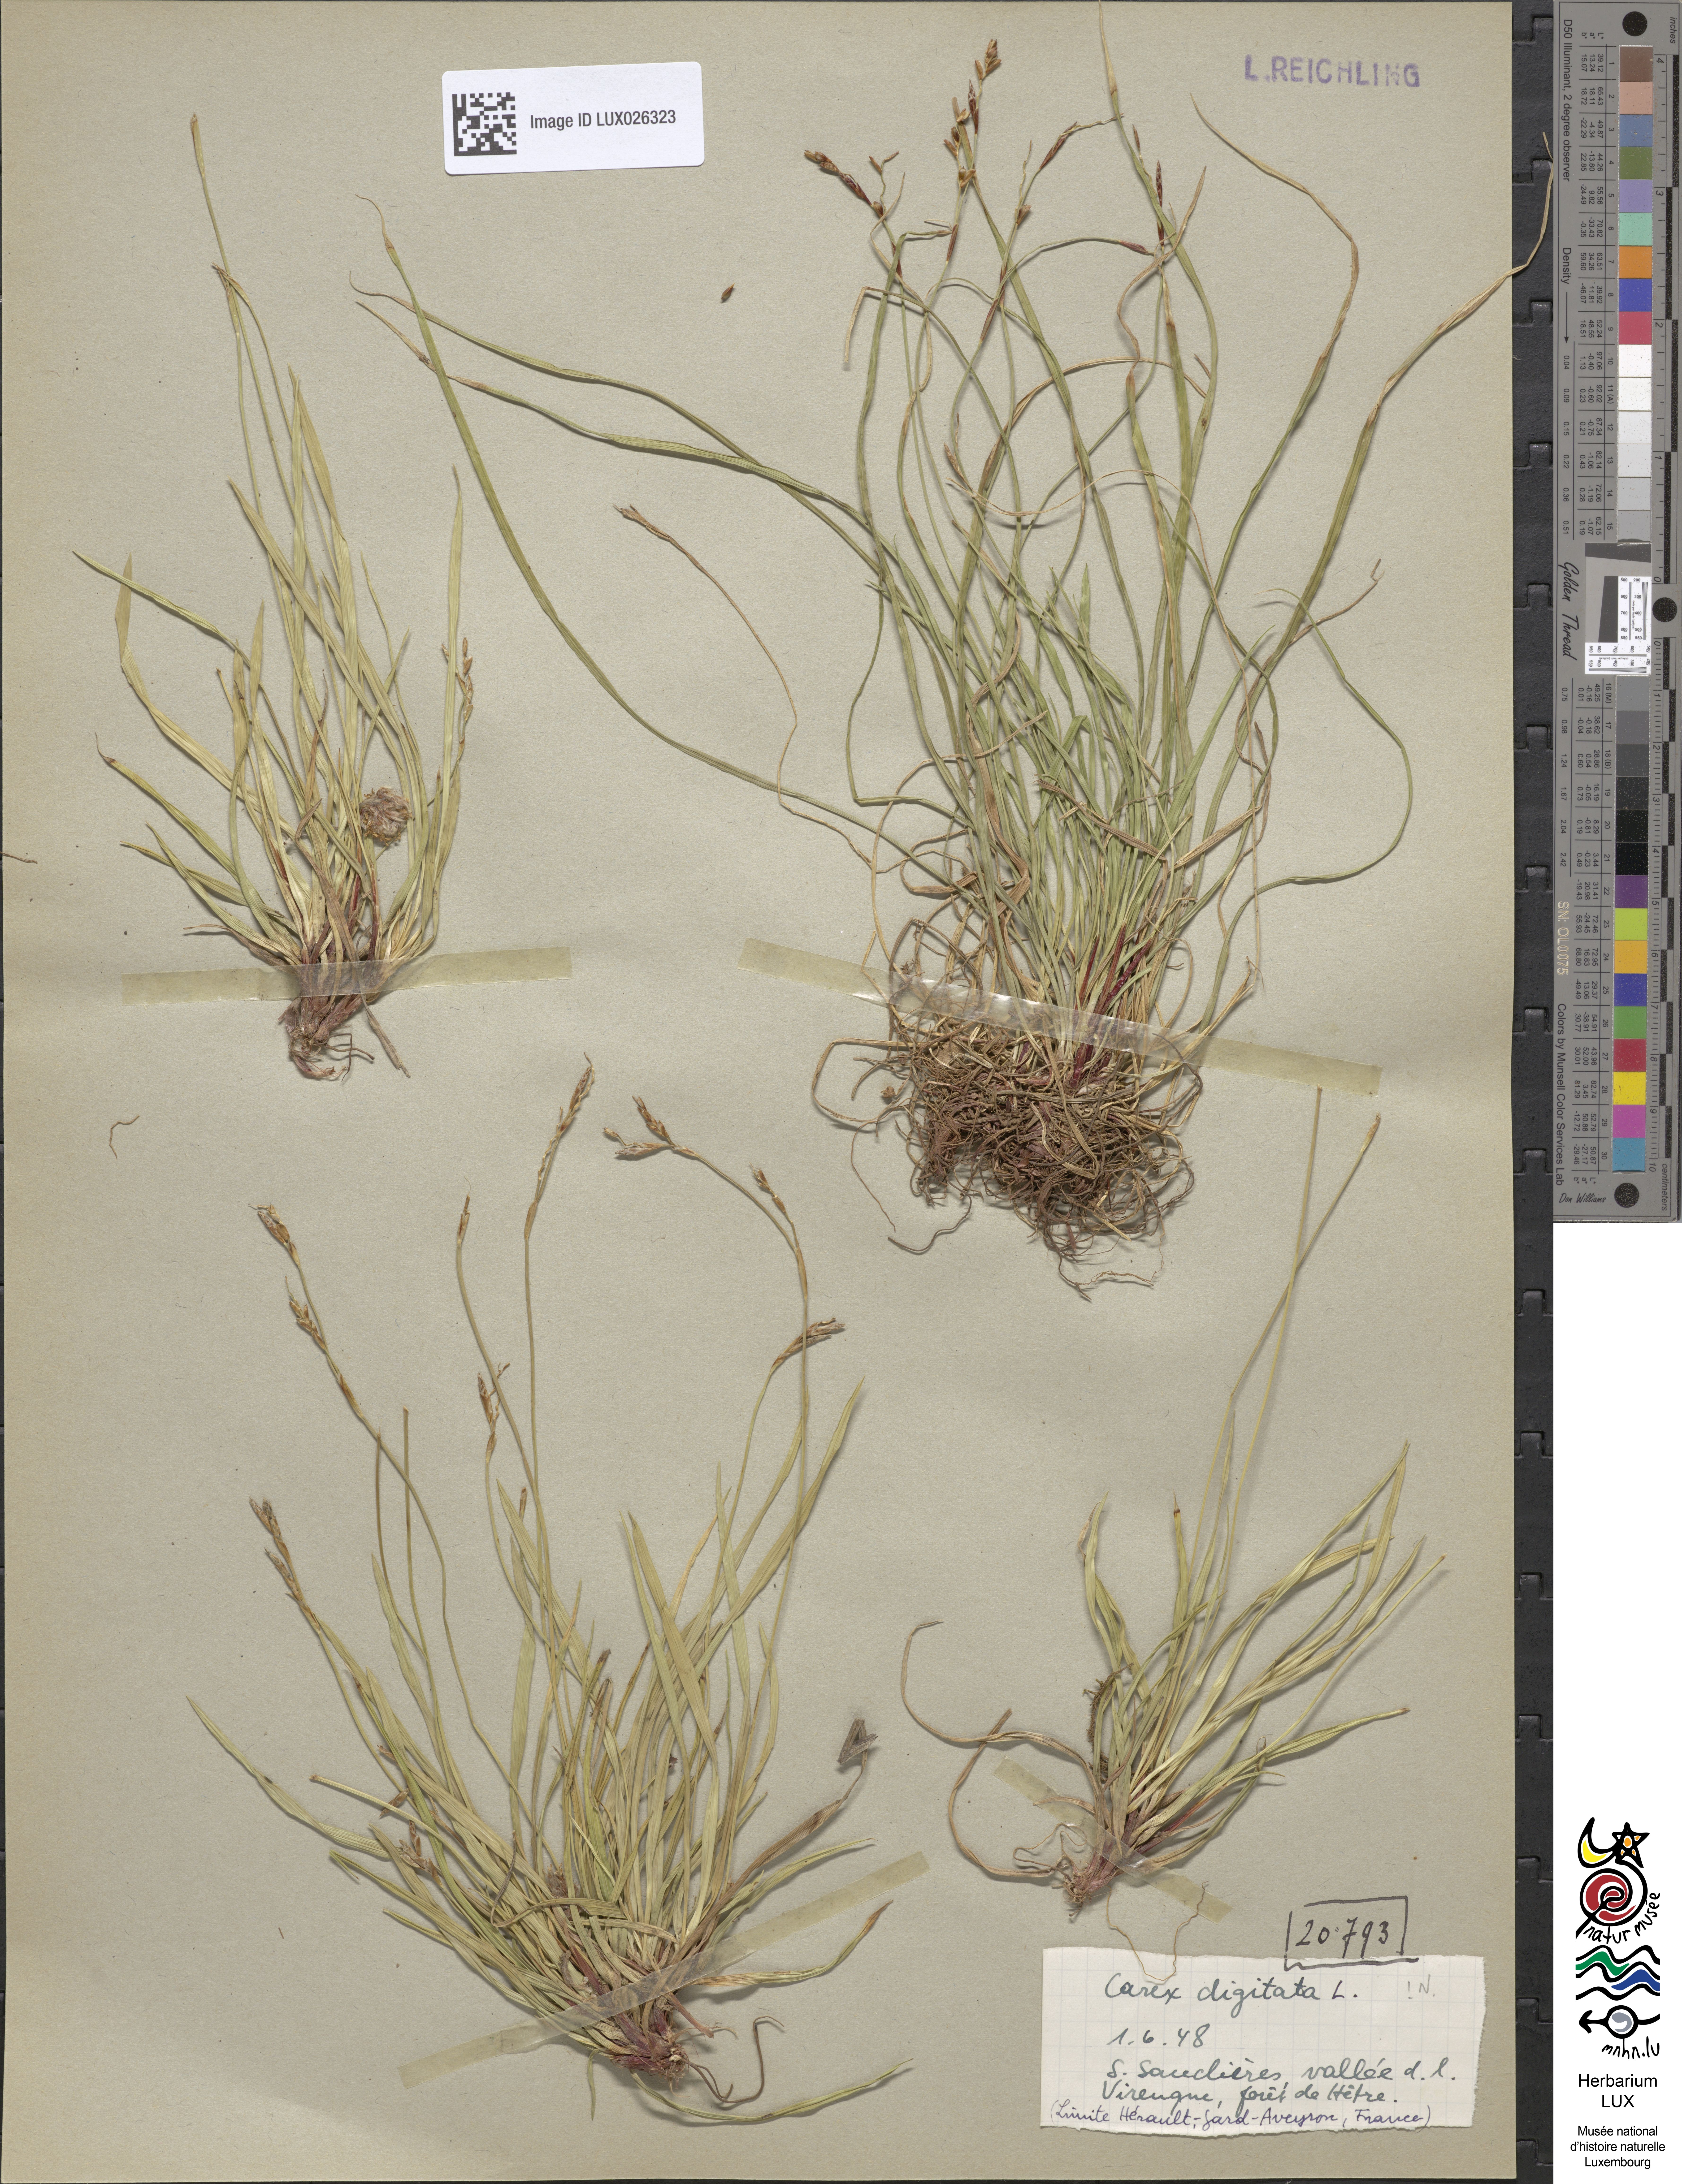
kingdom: Plantae
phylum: Tracheophyta
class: Liliopsida
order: Poales
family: Cyperaceae
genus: Carex
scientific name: Carex digitata
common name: Fingered sedge
